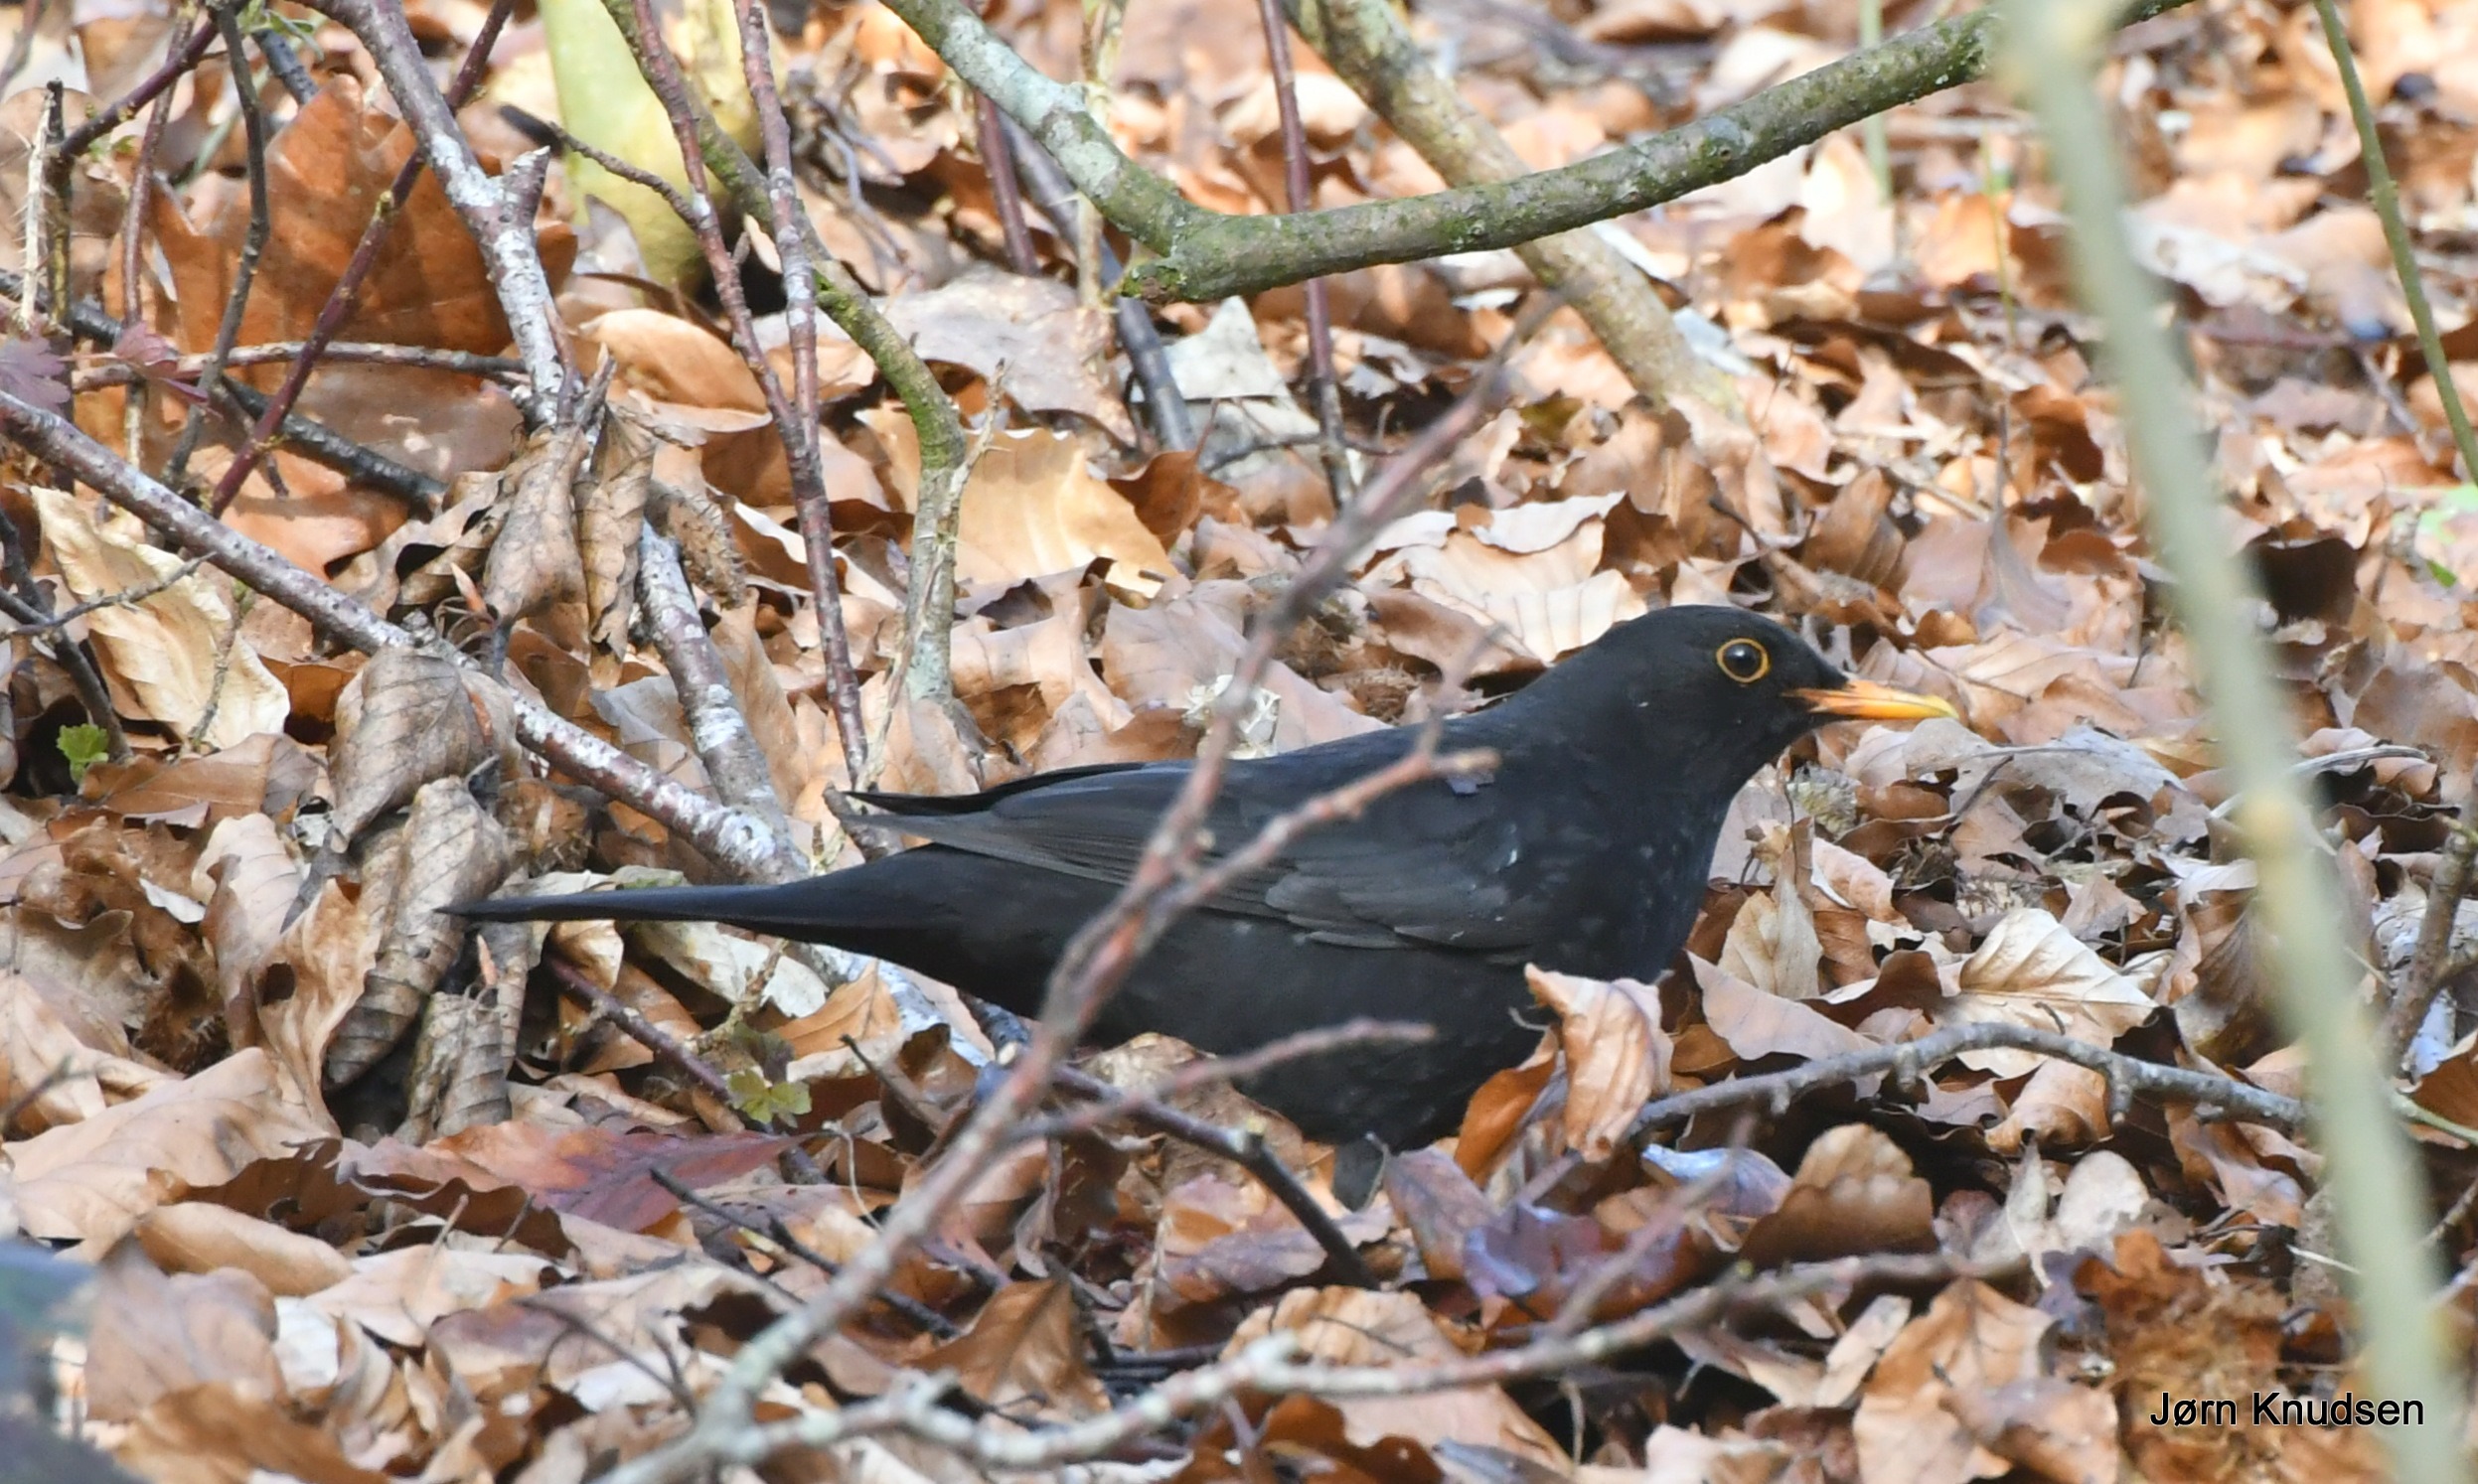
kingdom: Animalia
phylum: Chordata
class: Aves
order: Passeriformes
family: Turdidae
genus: Turdus
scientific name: Turdus merula
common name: Solsort
